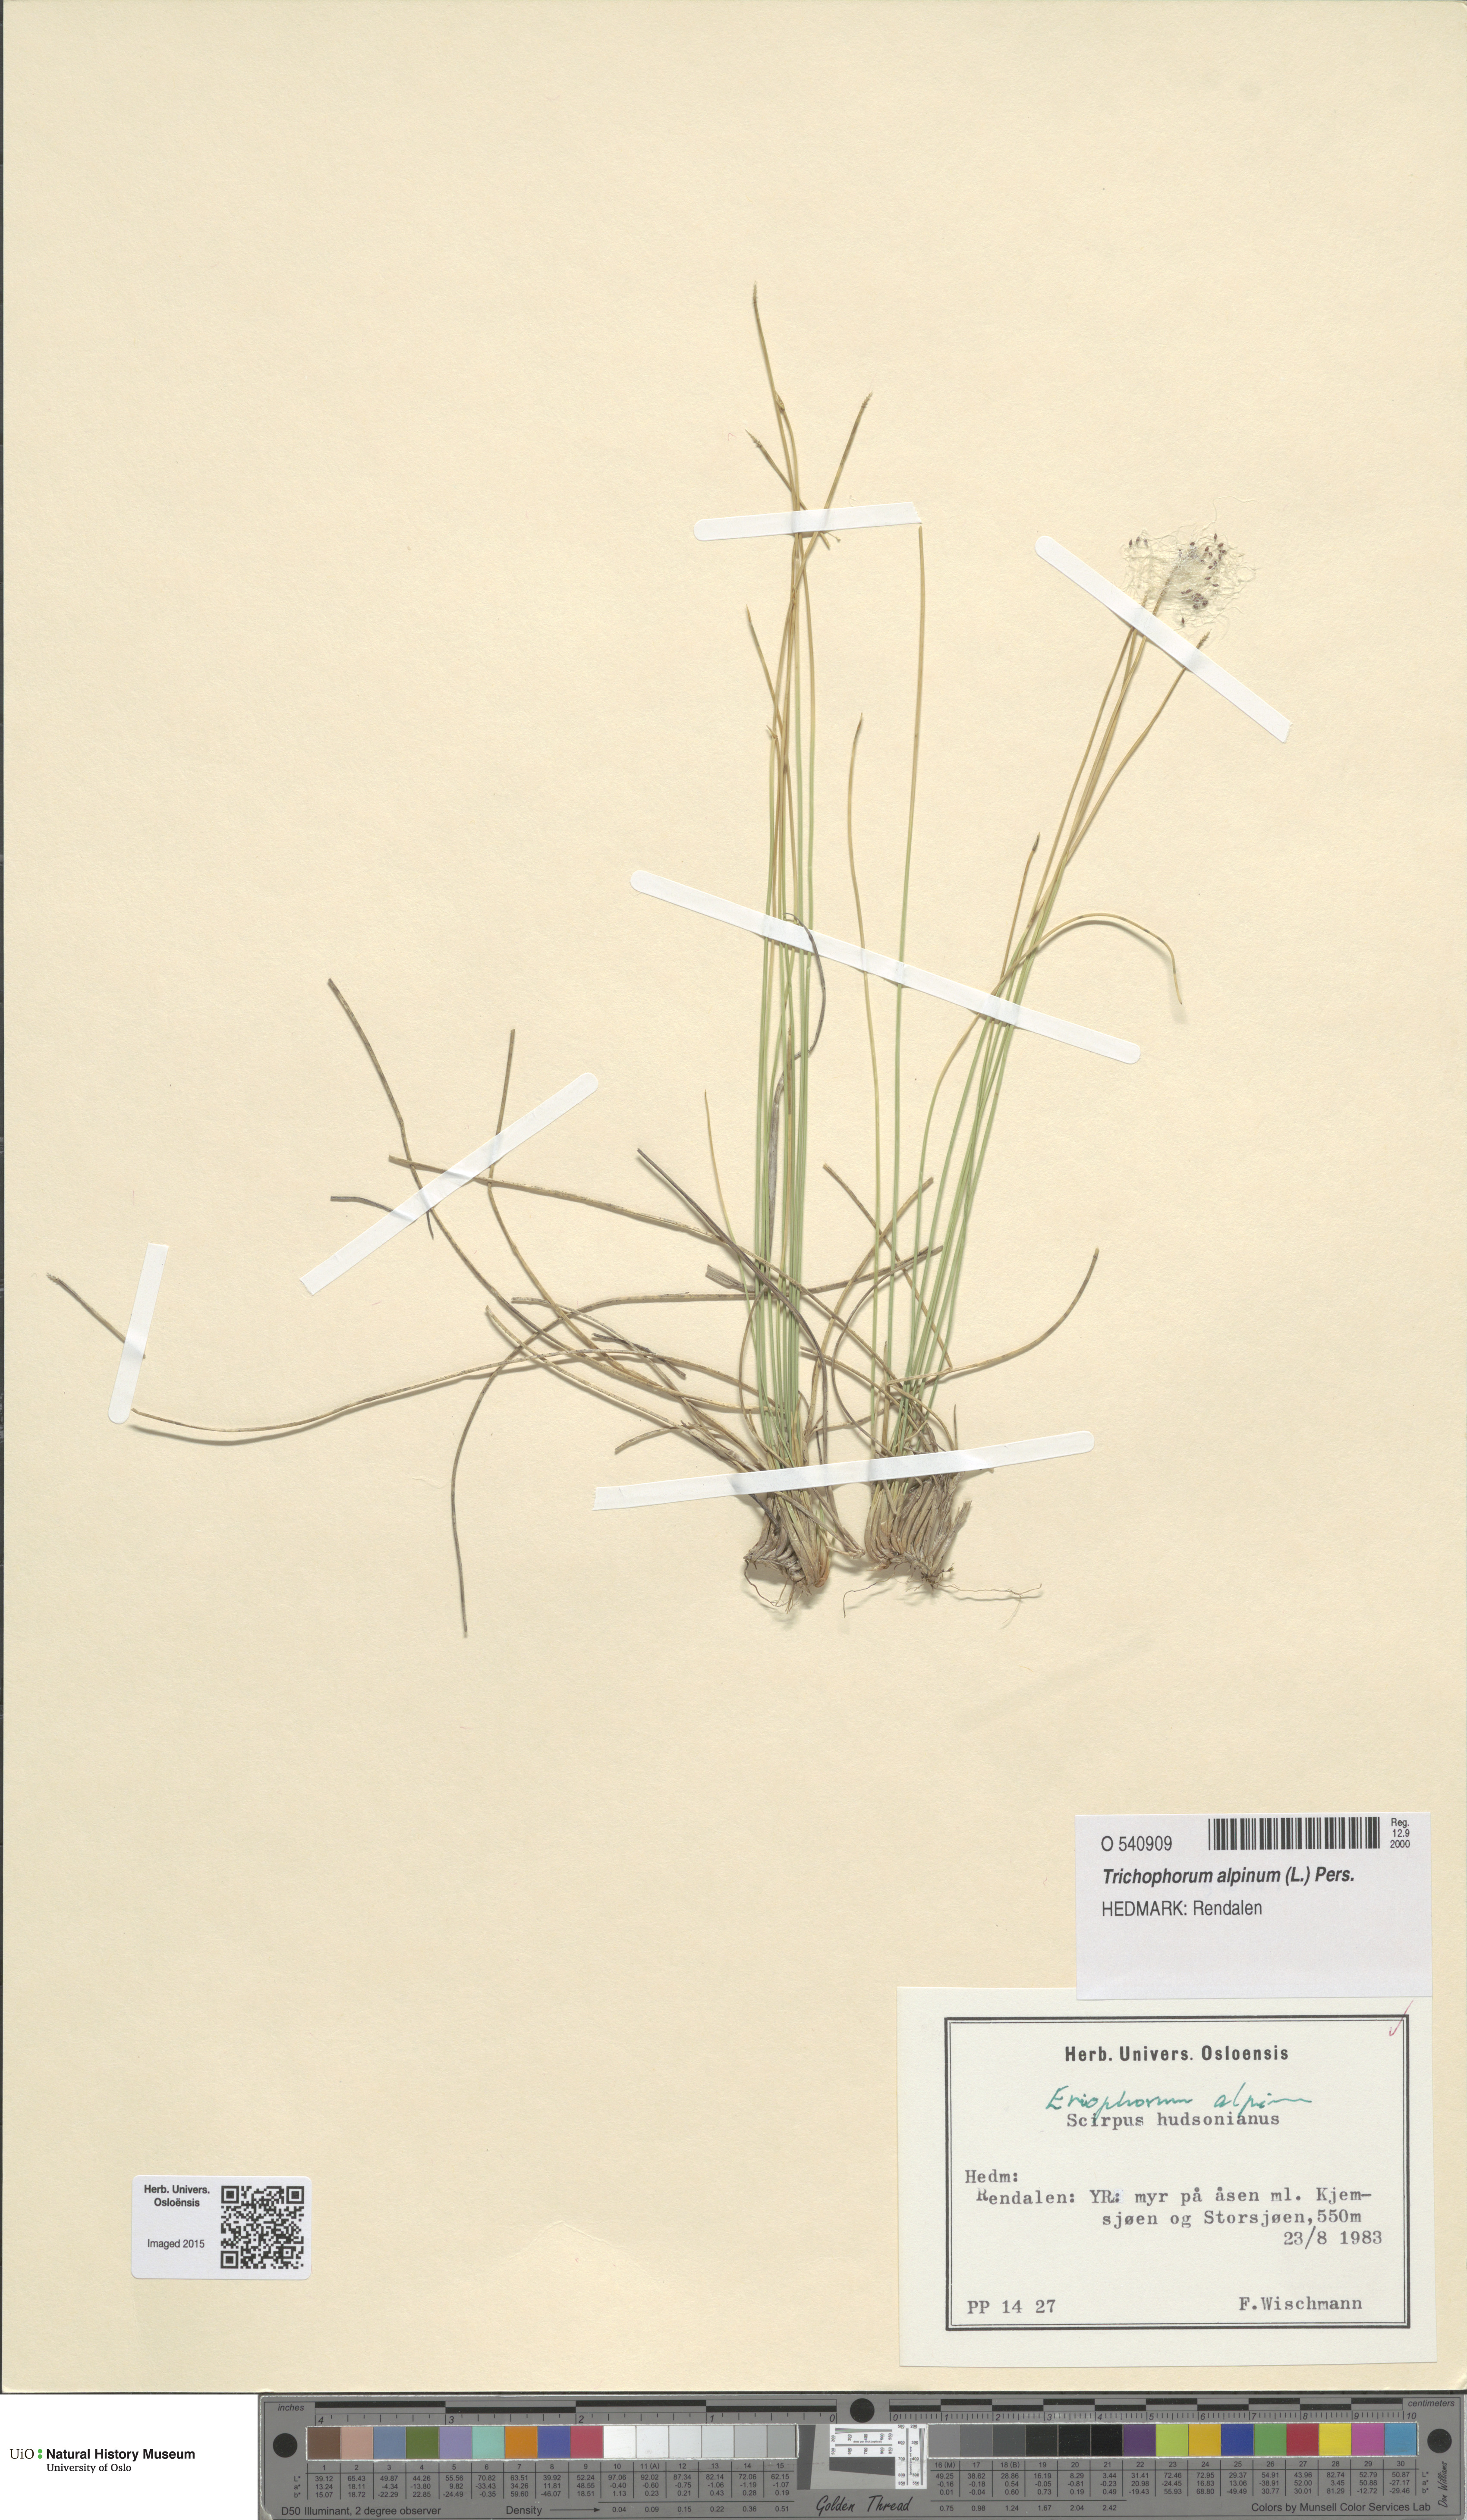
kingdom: Plantae
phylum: Tracheophyta
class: Liliopsida
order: Poales
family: Cyperaceae
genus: Trichophorum
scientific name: Trichophorum alpinum
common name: Alpine bulrush
